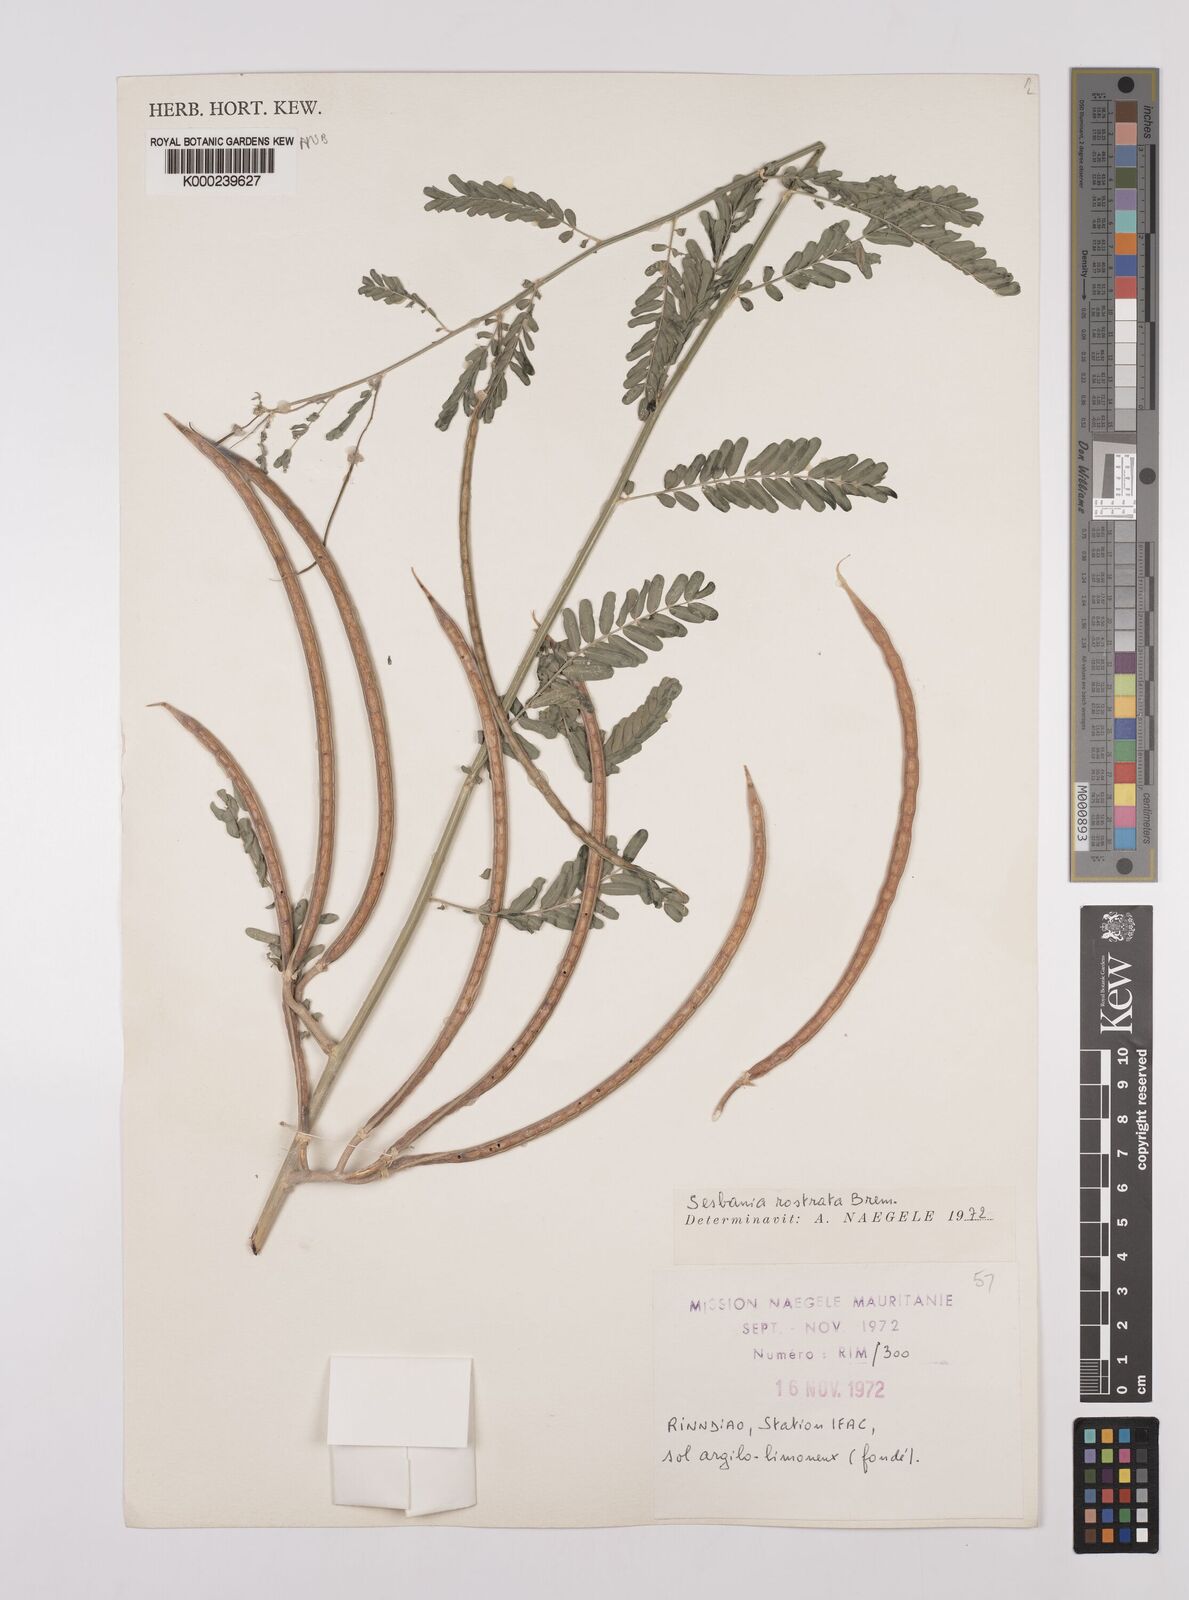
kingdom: Plantae
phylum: Tracheophyta
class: Magnoliopsida
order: Fabales
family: Fabaceae
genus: Sesbania
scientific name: Sesbania rostrata
